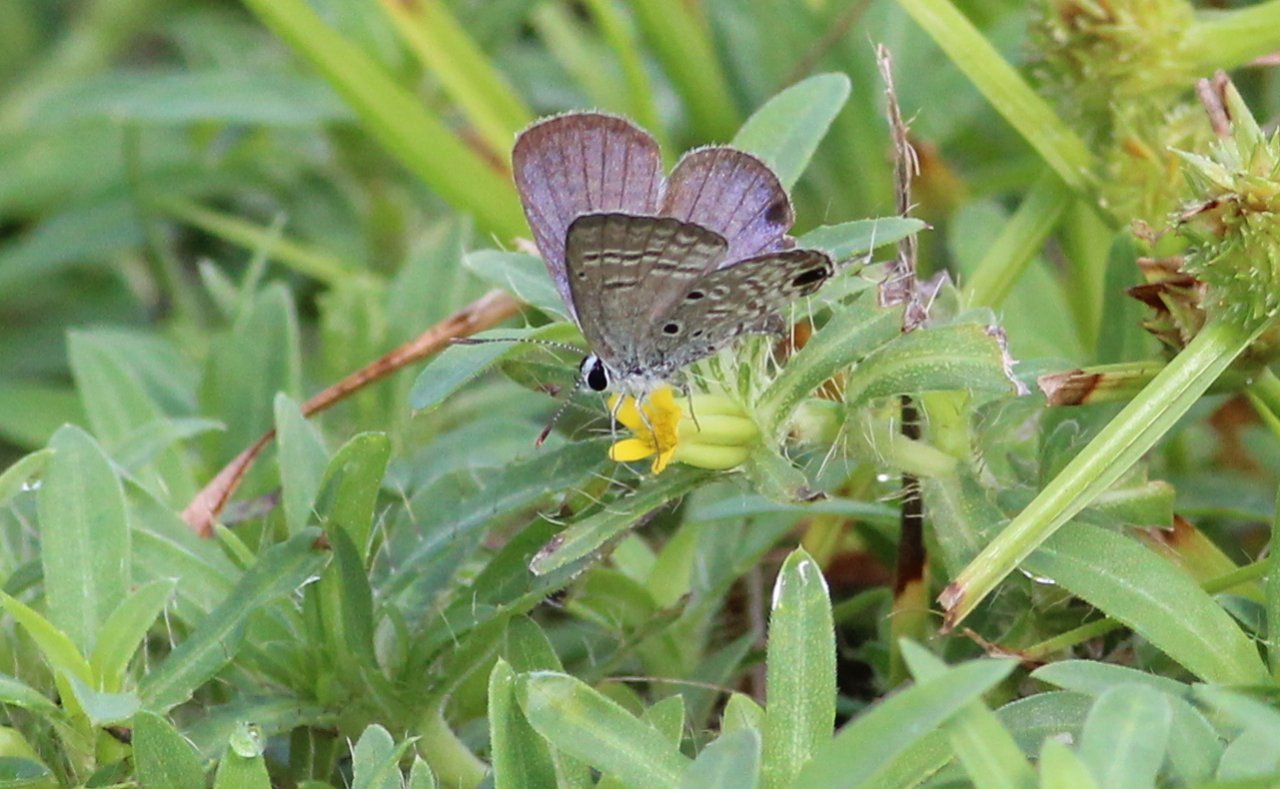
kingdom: Animalia
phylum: Arthropoda
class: Insecta
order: Lepidoptera
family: Lycaenidae
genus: Hemiargus
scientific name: Hemiargus ceraunus
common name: Ceraunus Blue
